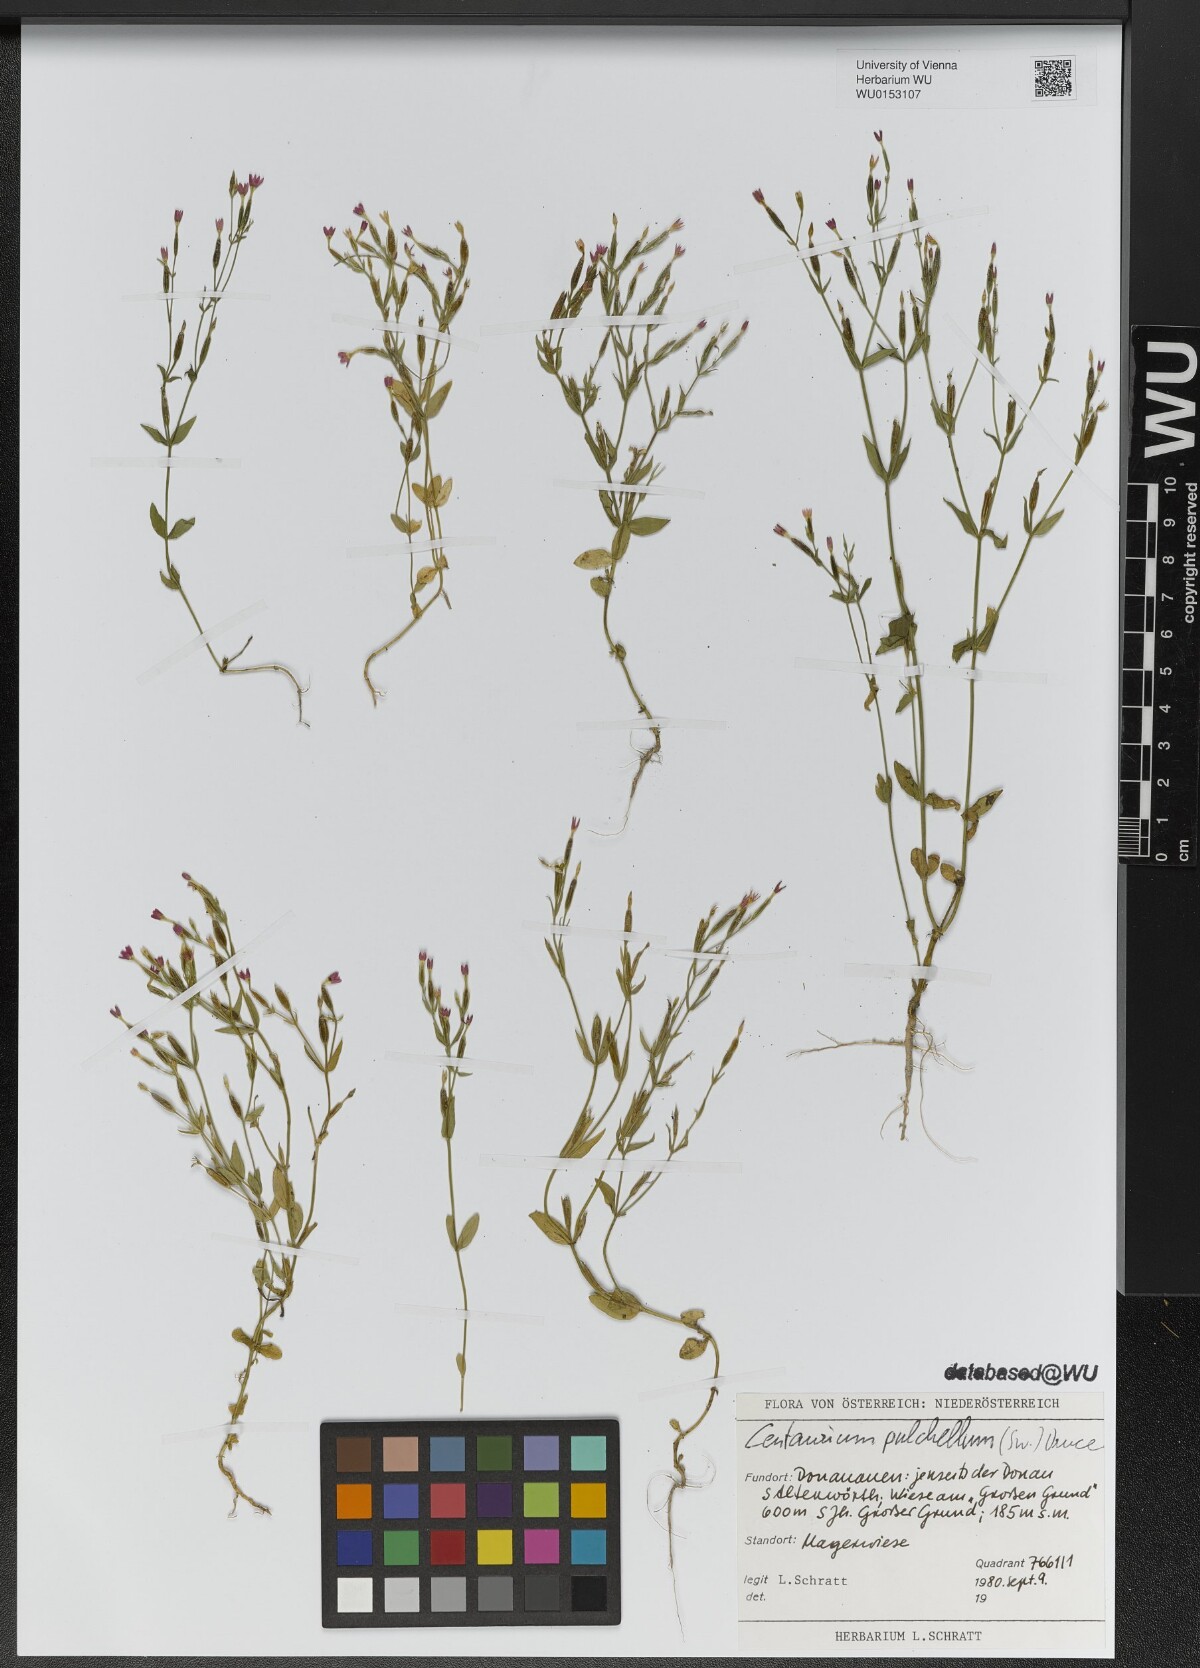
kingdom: Plantae
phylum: Tracheophyta
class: Magnoliopsida
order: Gentianales
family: Gentianaceae
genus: Centaurium
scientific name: Centaurium pulchellum
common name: Lesser centaury
